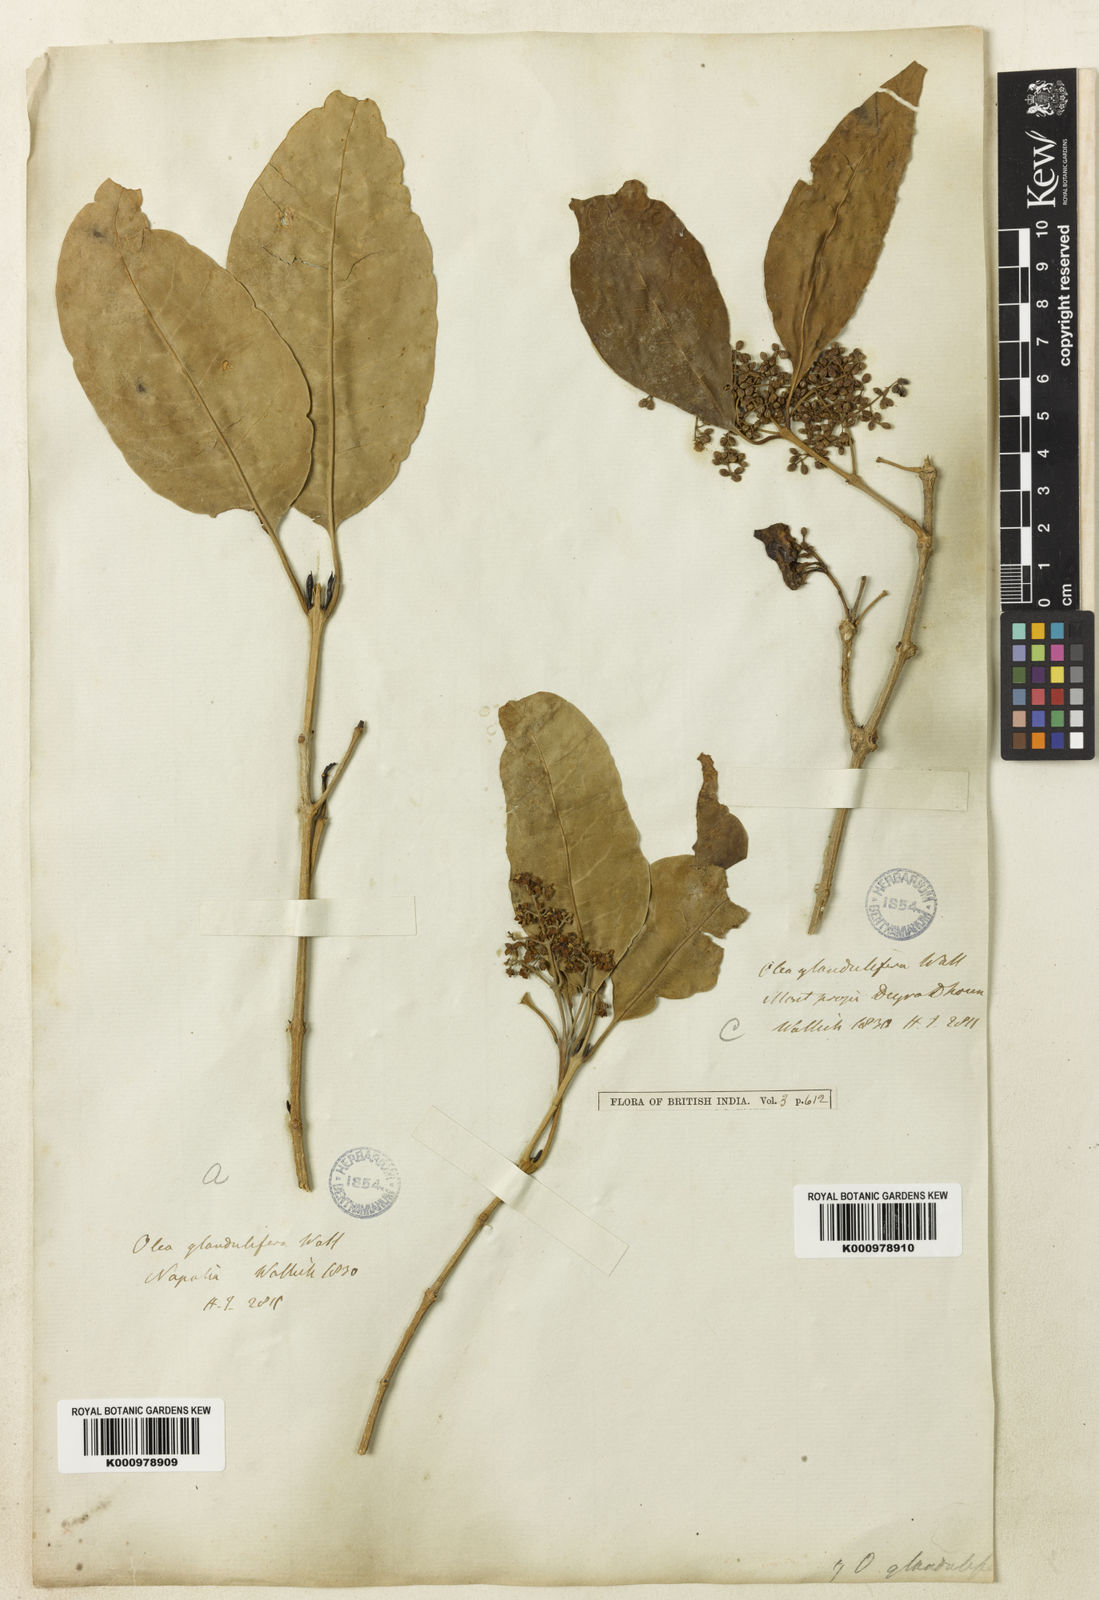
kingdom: Plantae
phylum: Tracheophyta
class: Magnoliopsida
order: Lamiales
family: Oleaceae
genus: Olea
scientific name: Olea
